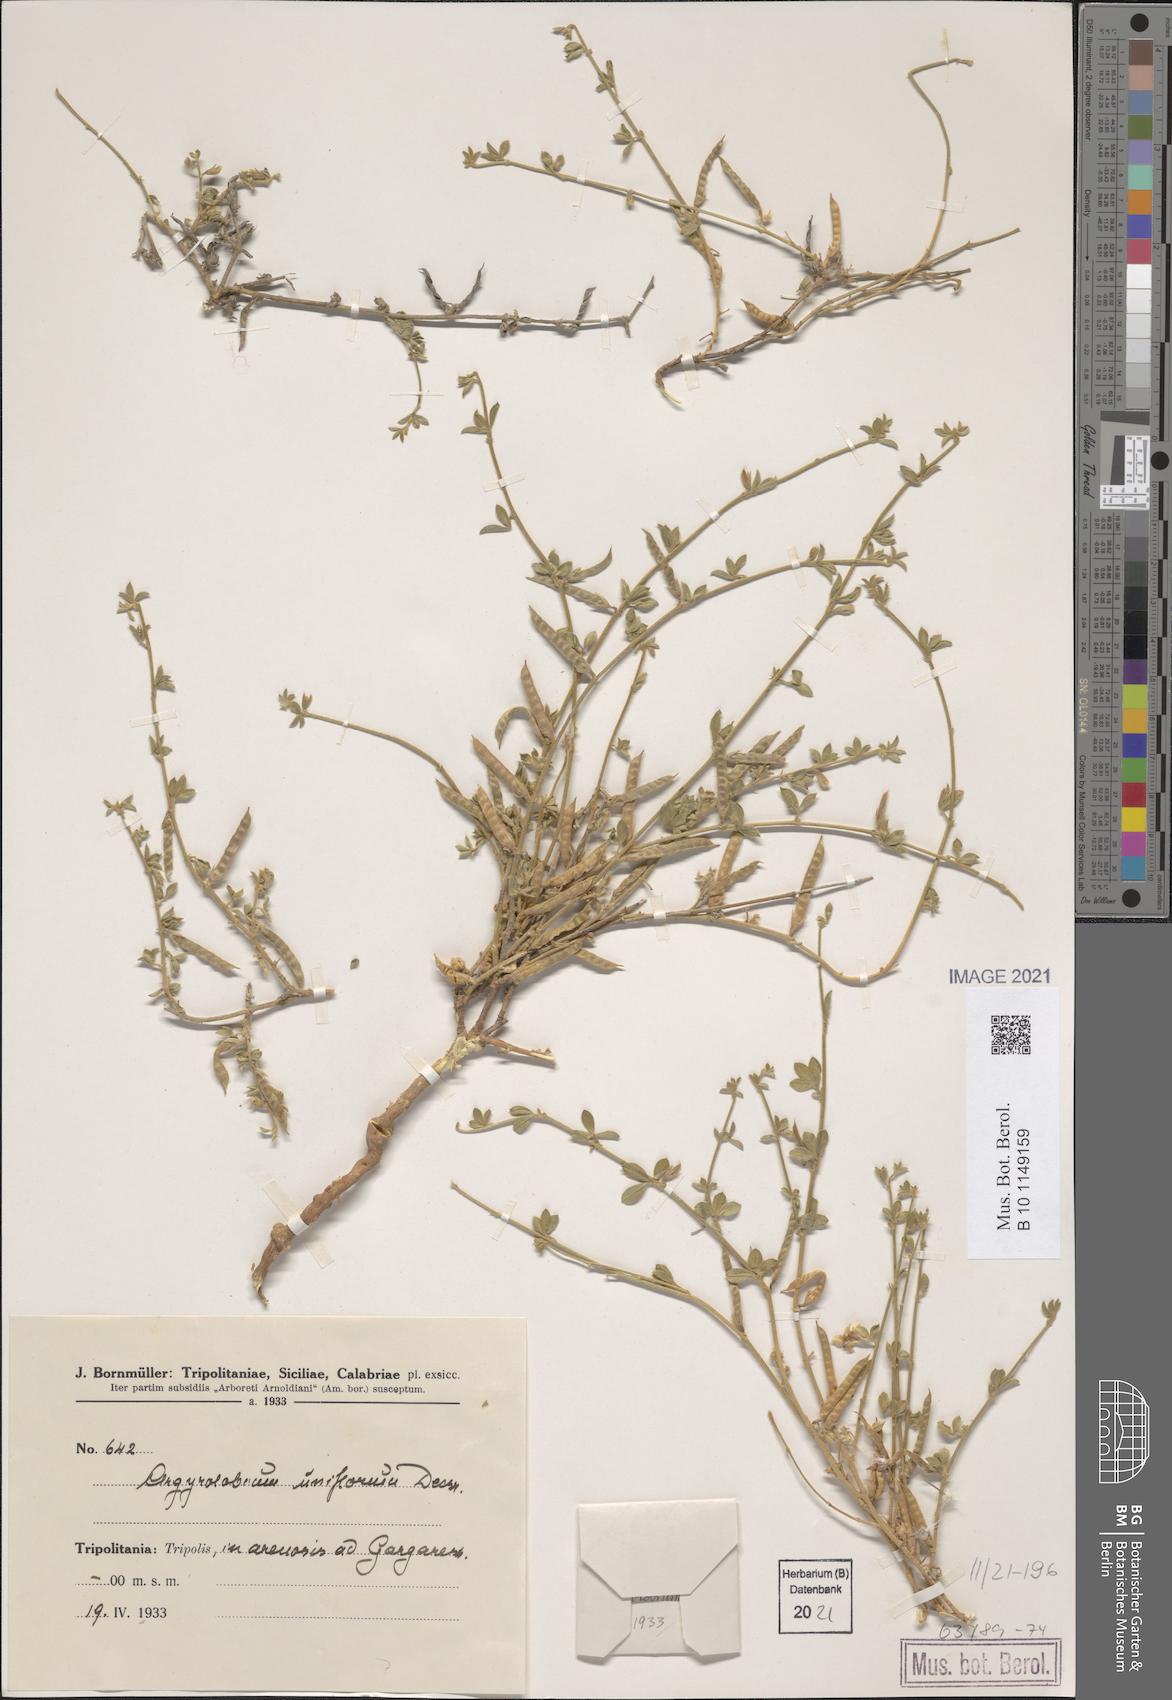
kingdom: Plantae
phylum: Tracheophyta
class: Magnoliopsida
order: Fabales
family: Fabaceae
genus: Argyrolobium
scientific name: Argyrolobium uniflorum
